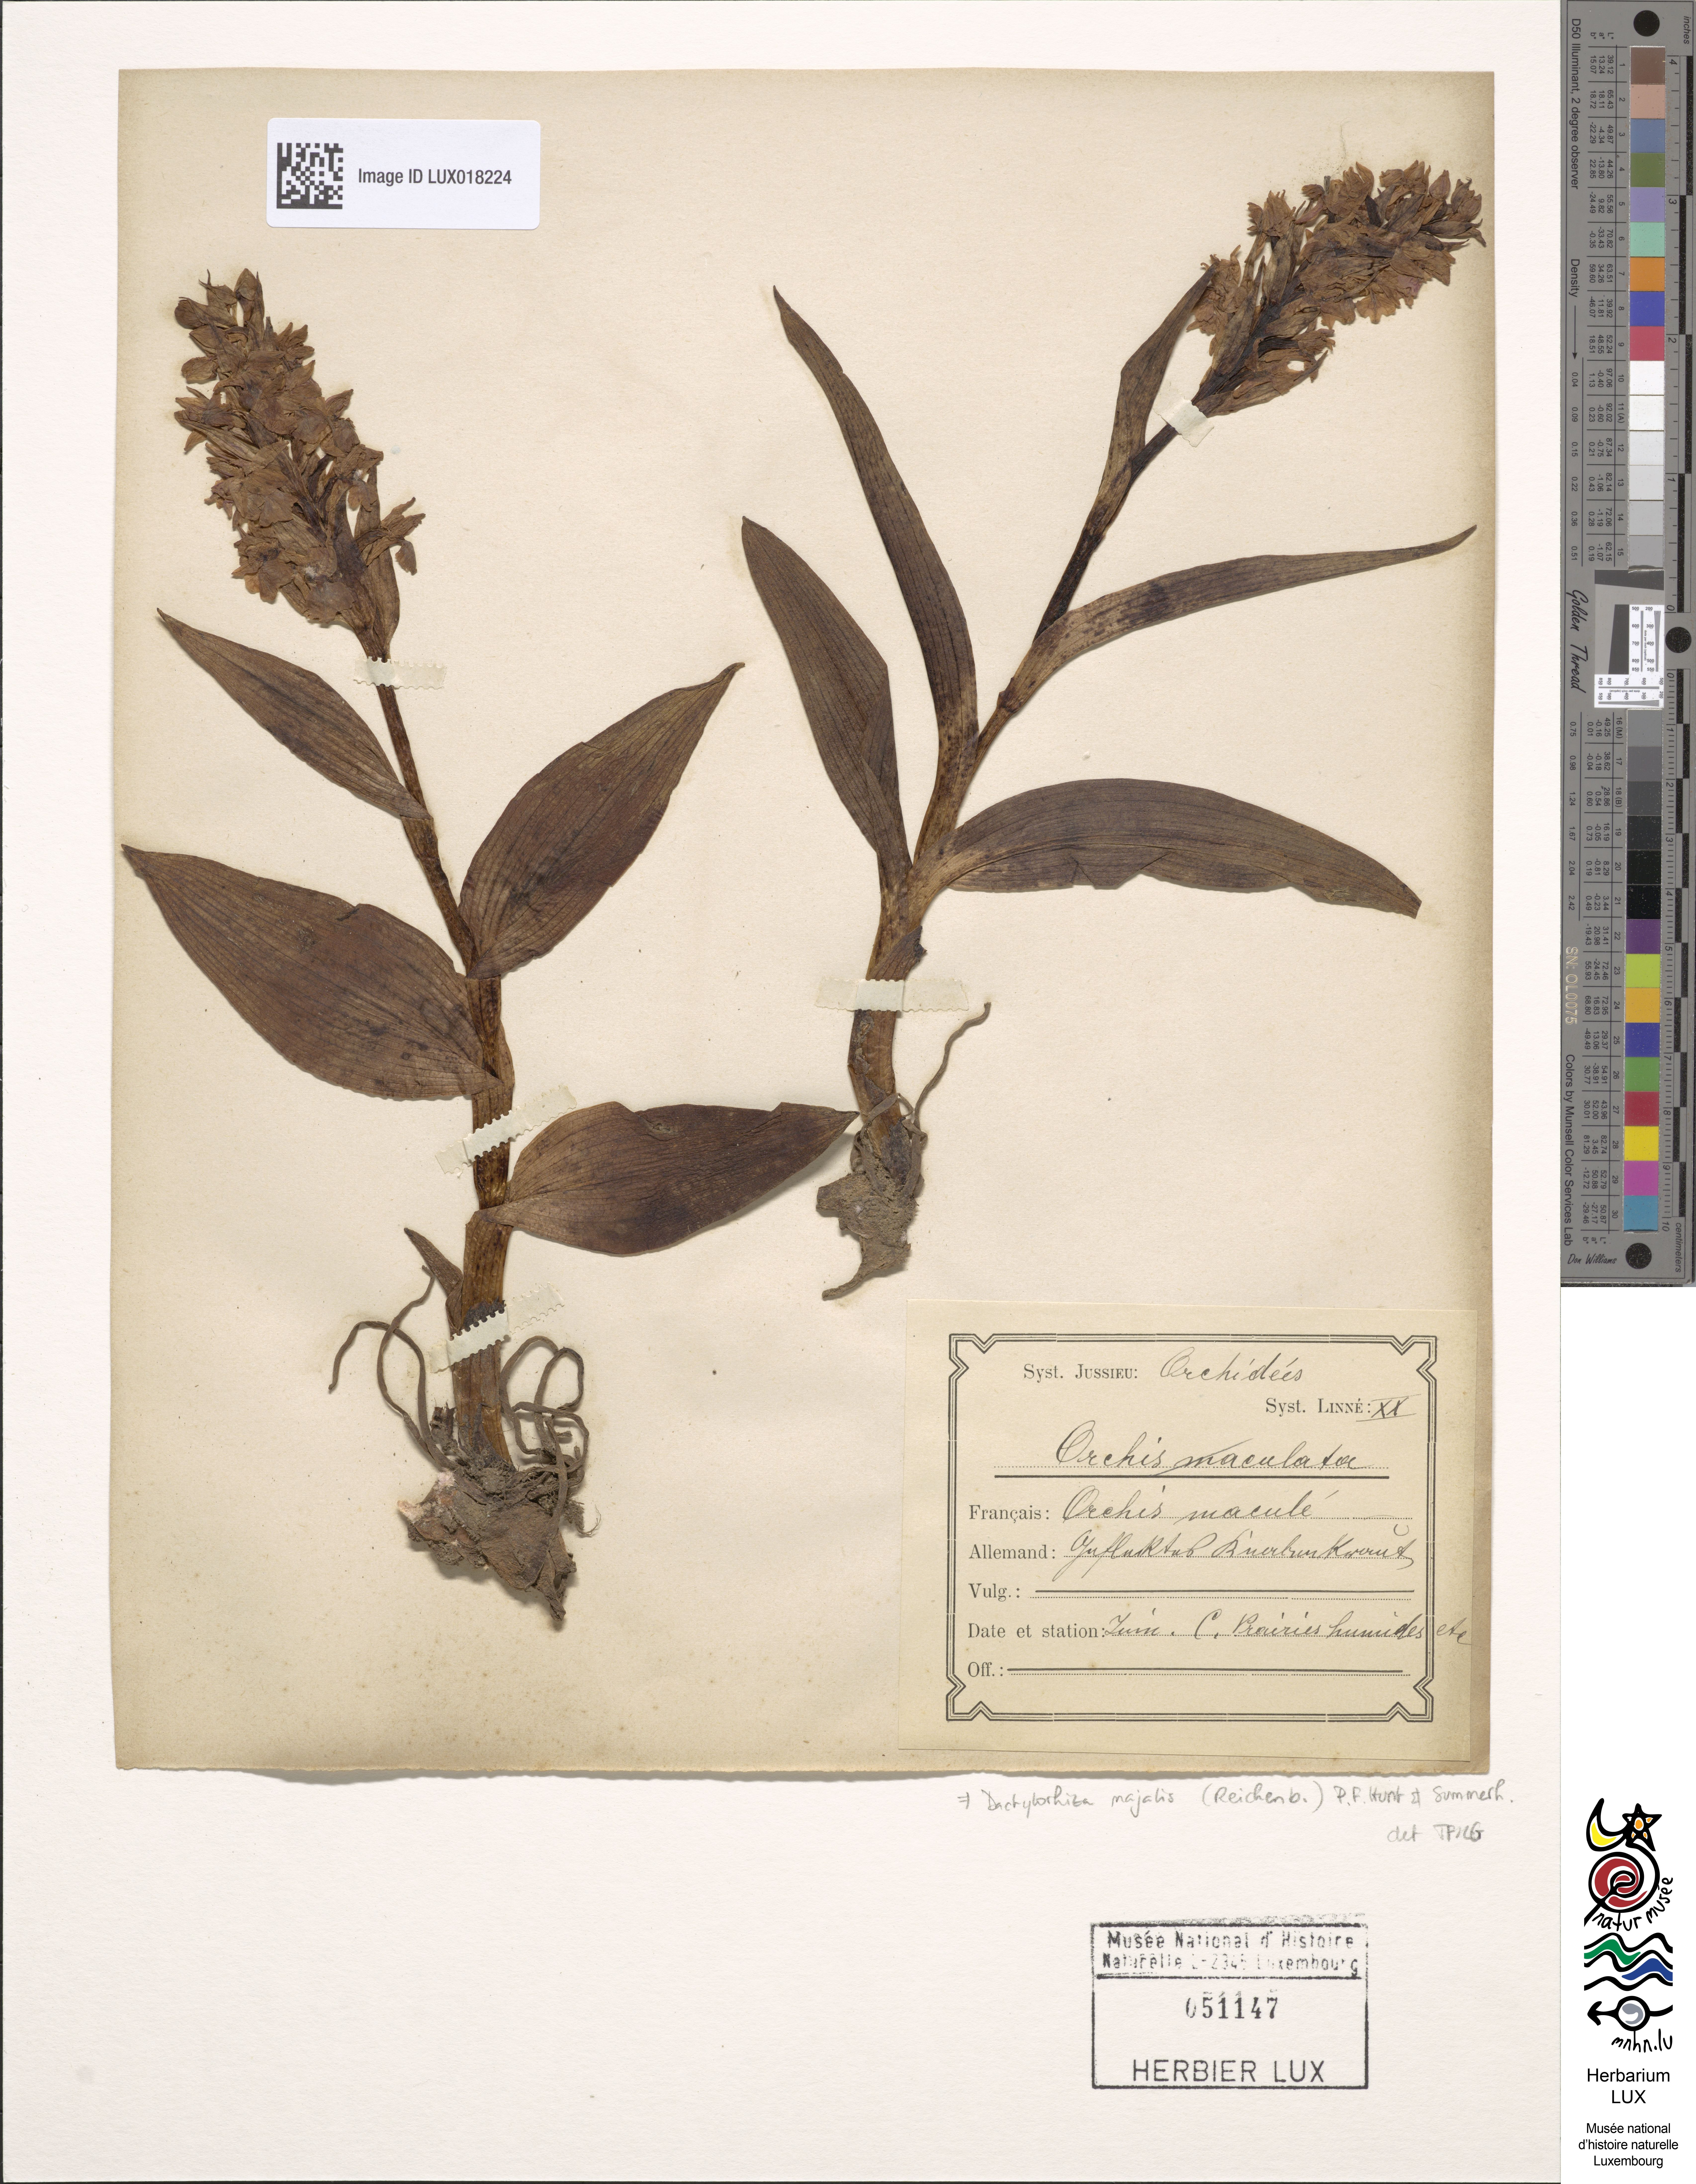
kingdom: Plantae
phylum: Tracheophyta
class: Liliopsida
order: Asparagales
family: Orchidaceae
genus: Dactylorhiza
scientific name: Dactylorhiza majalis
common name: Marsh orchid
